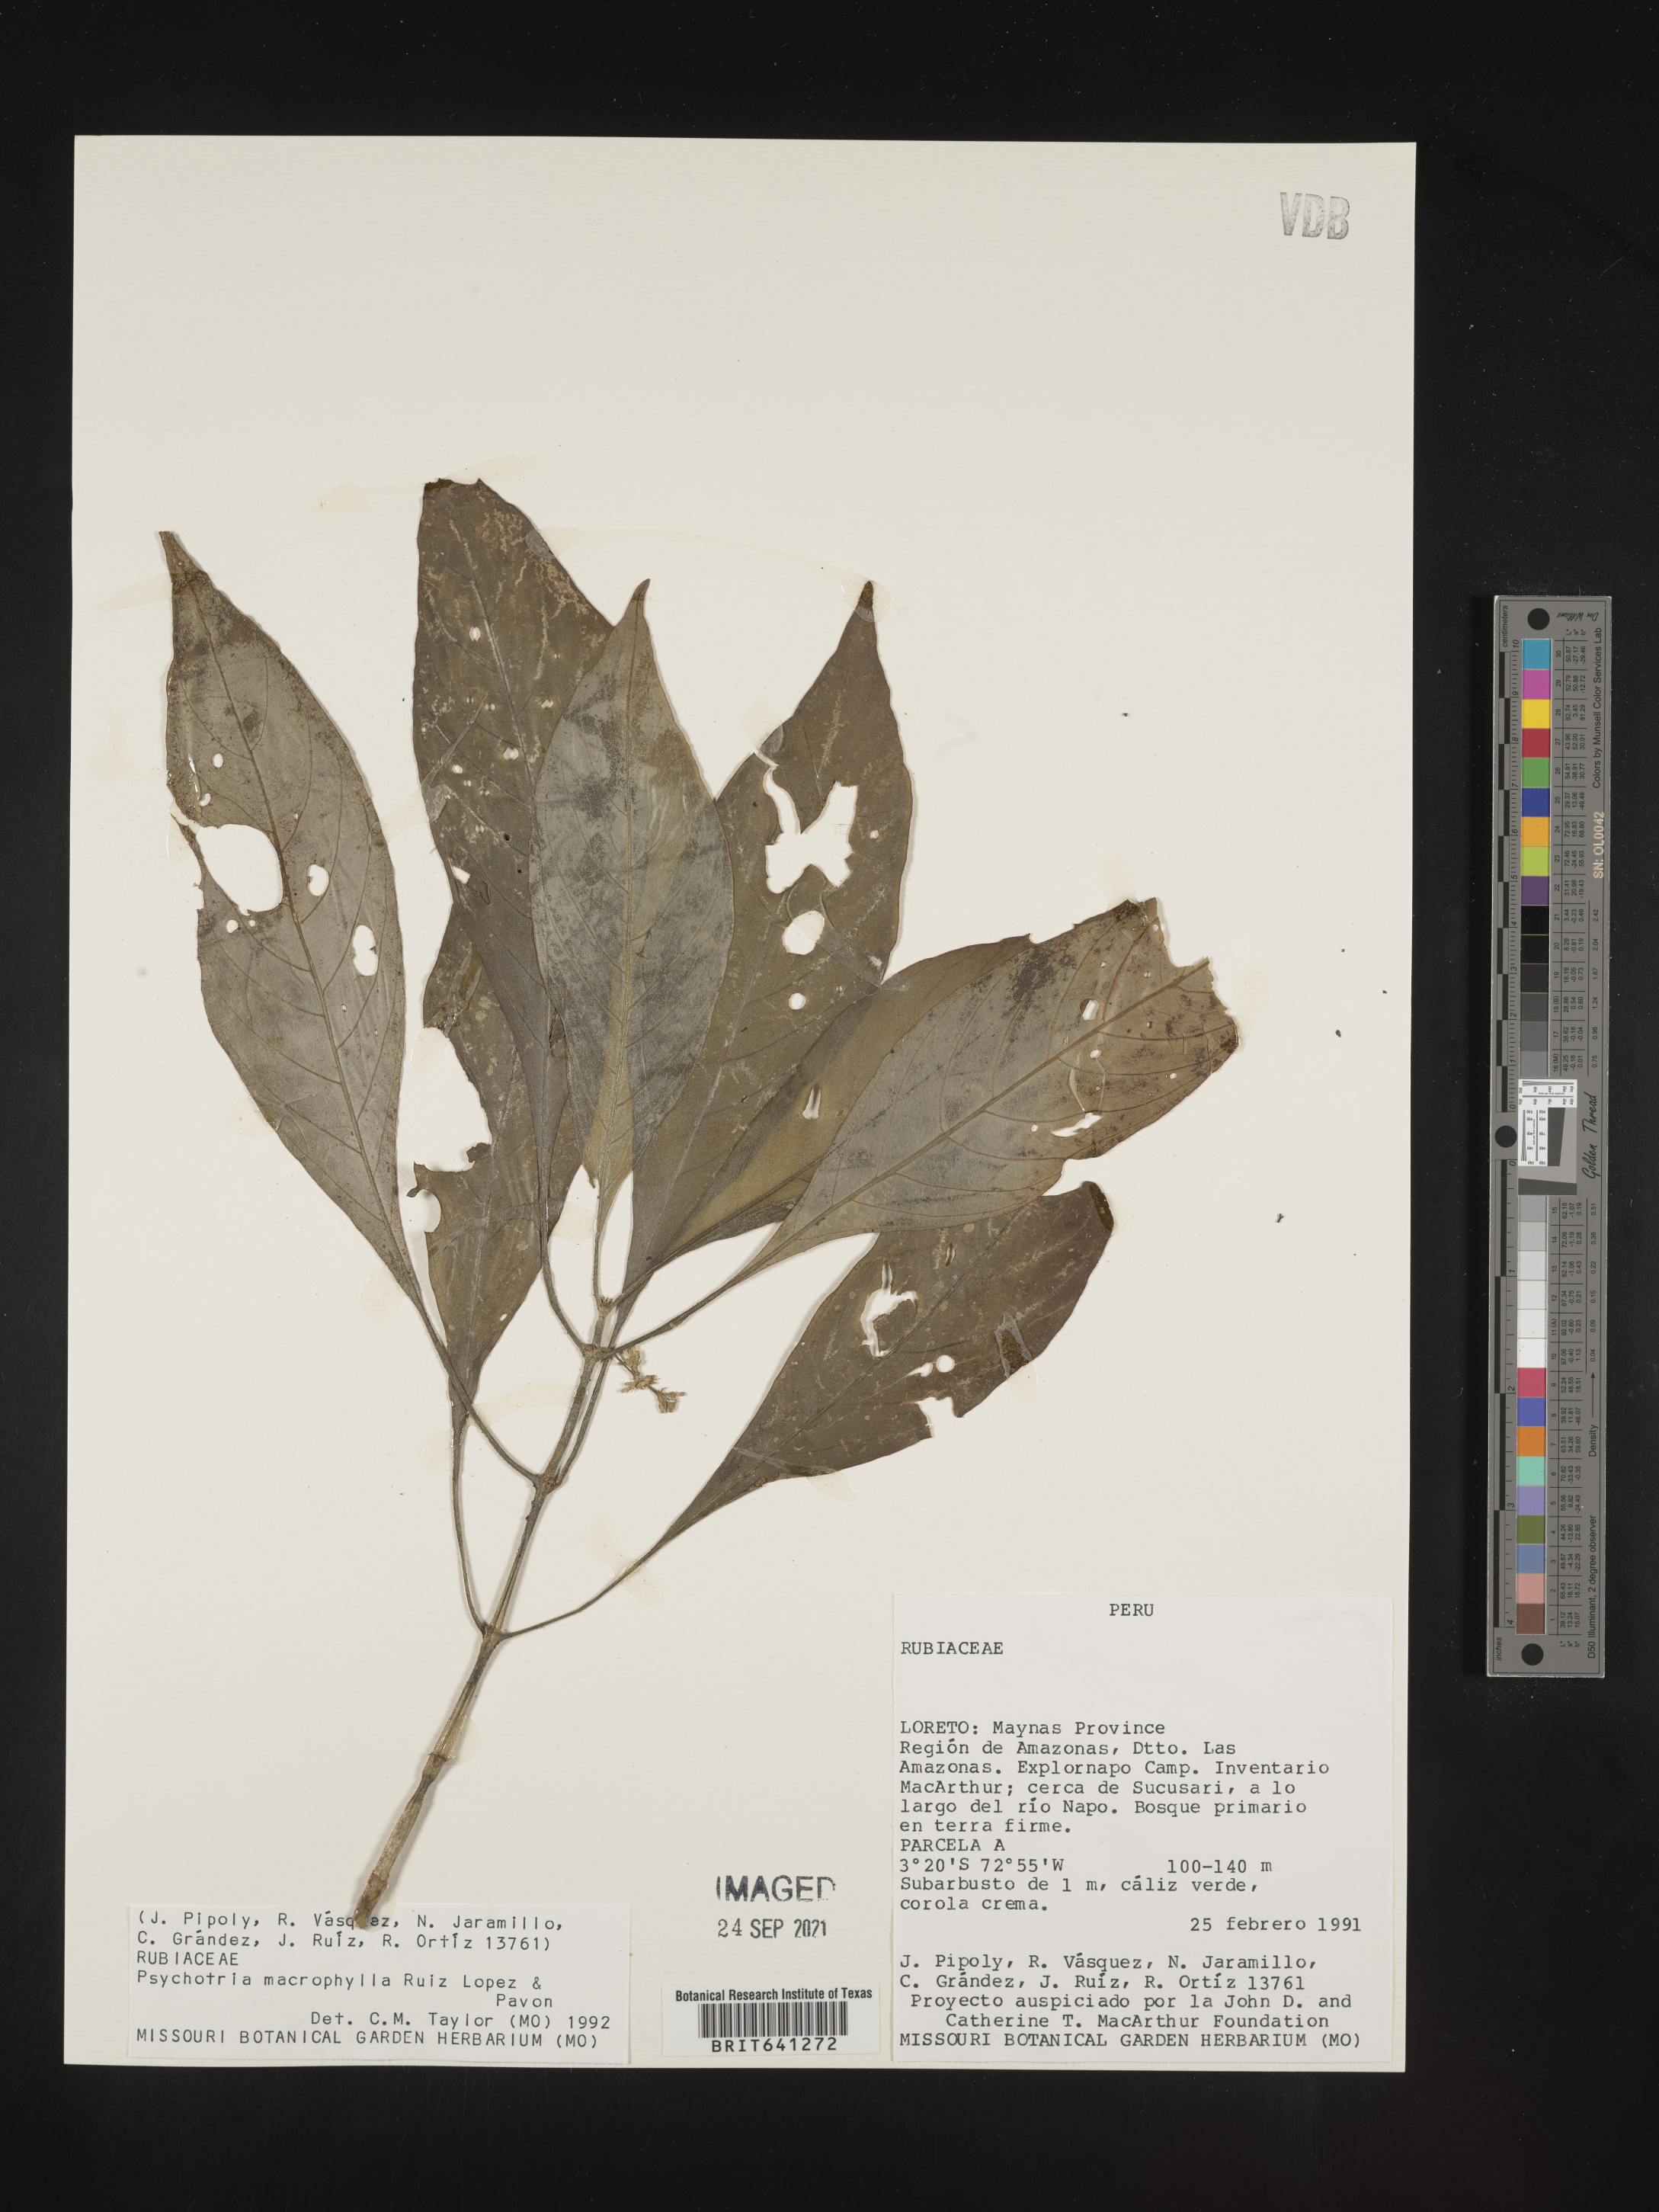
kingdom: Plantae
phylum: Tracheophyta
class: Magnoliopsida
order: Gentianales
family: Rubiaceae
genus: Psychotria
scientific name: Psychotria
